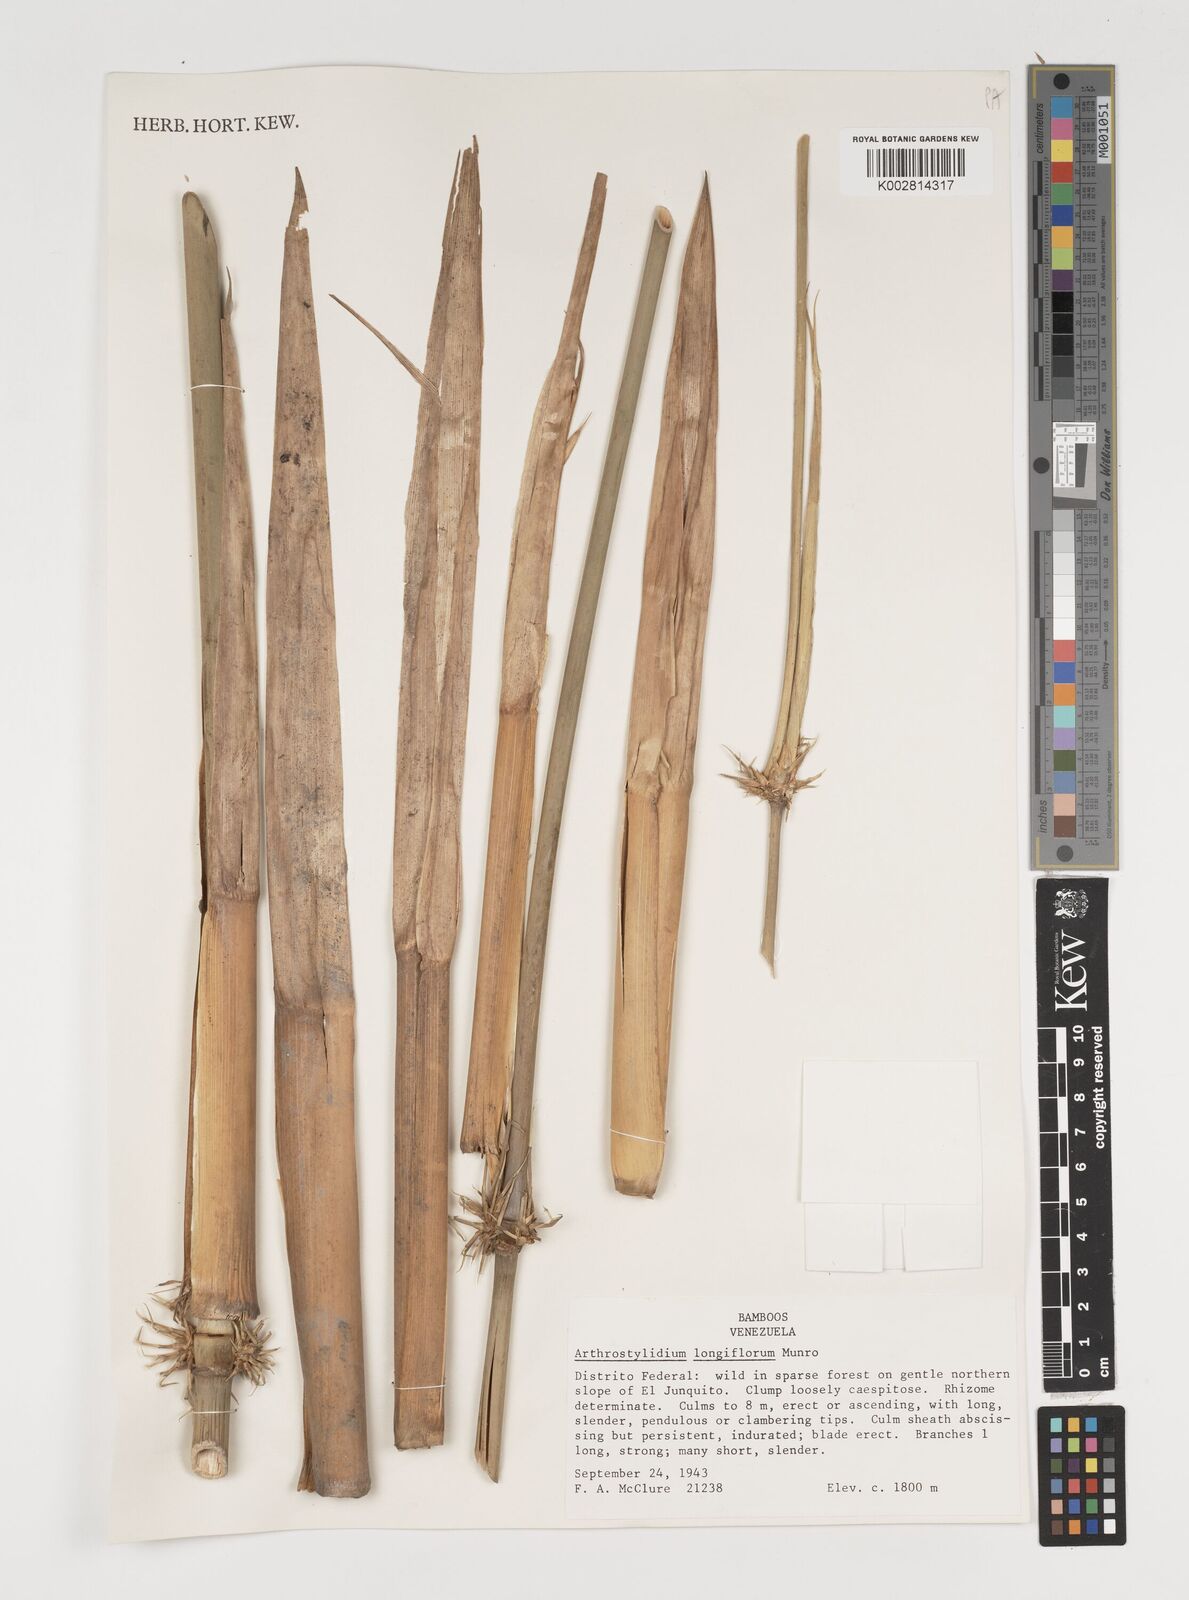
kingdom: Plantae
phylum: Tracheophyta
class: Liliopsida
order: Poales
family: Poaceae
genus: Arthrostylidium
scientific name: Arthrostylidium longiflorum
